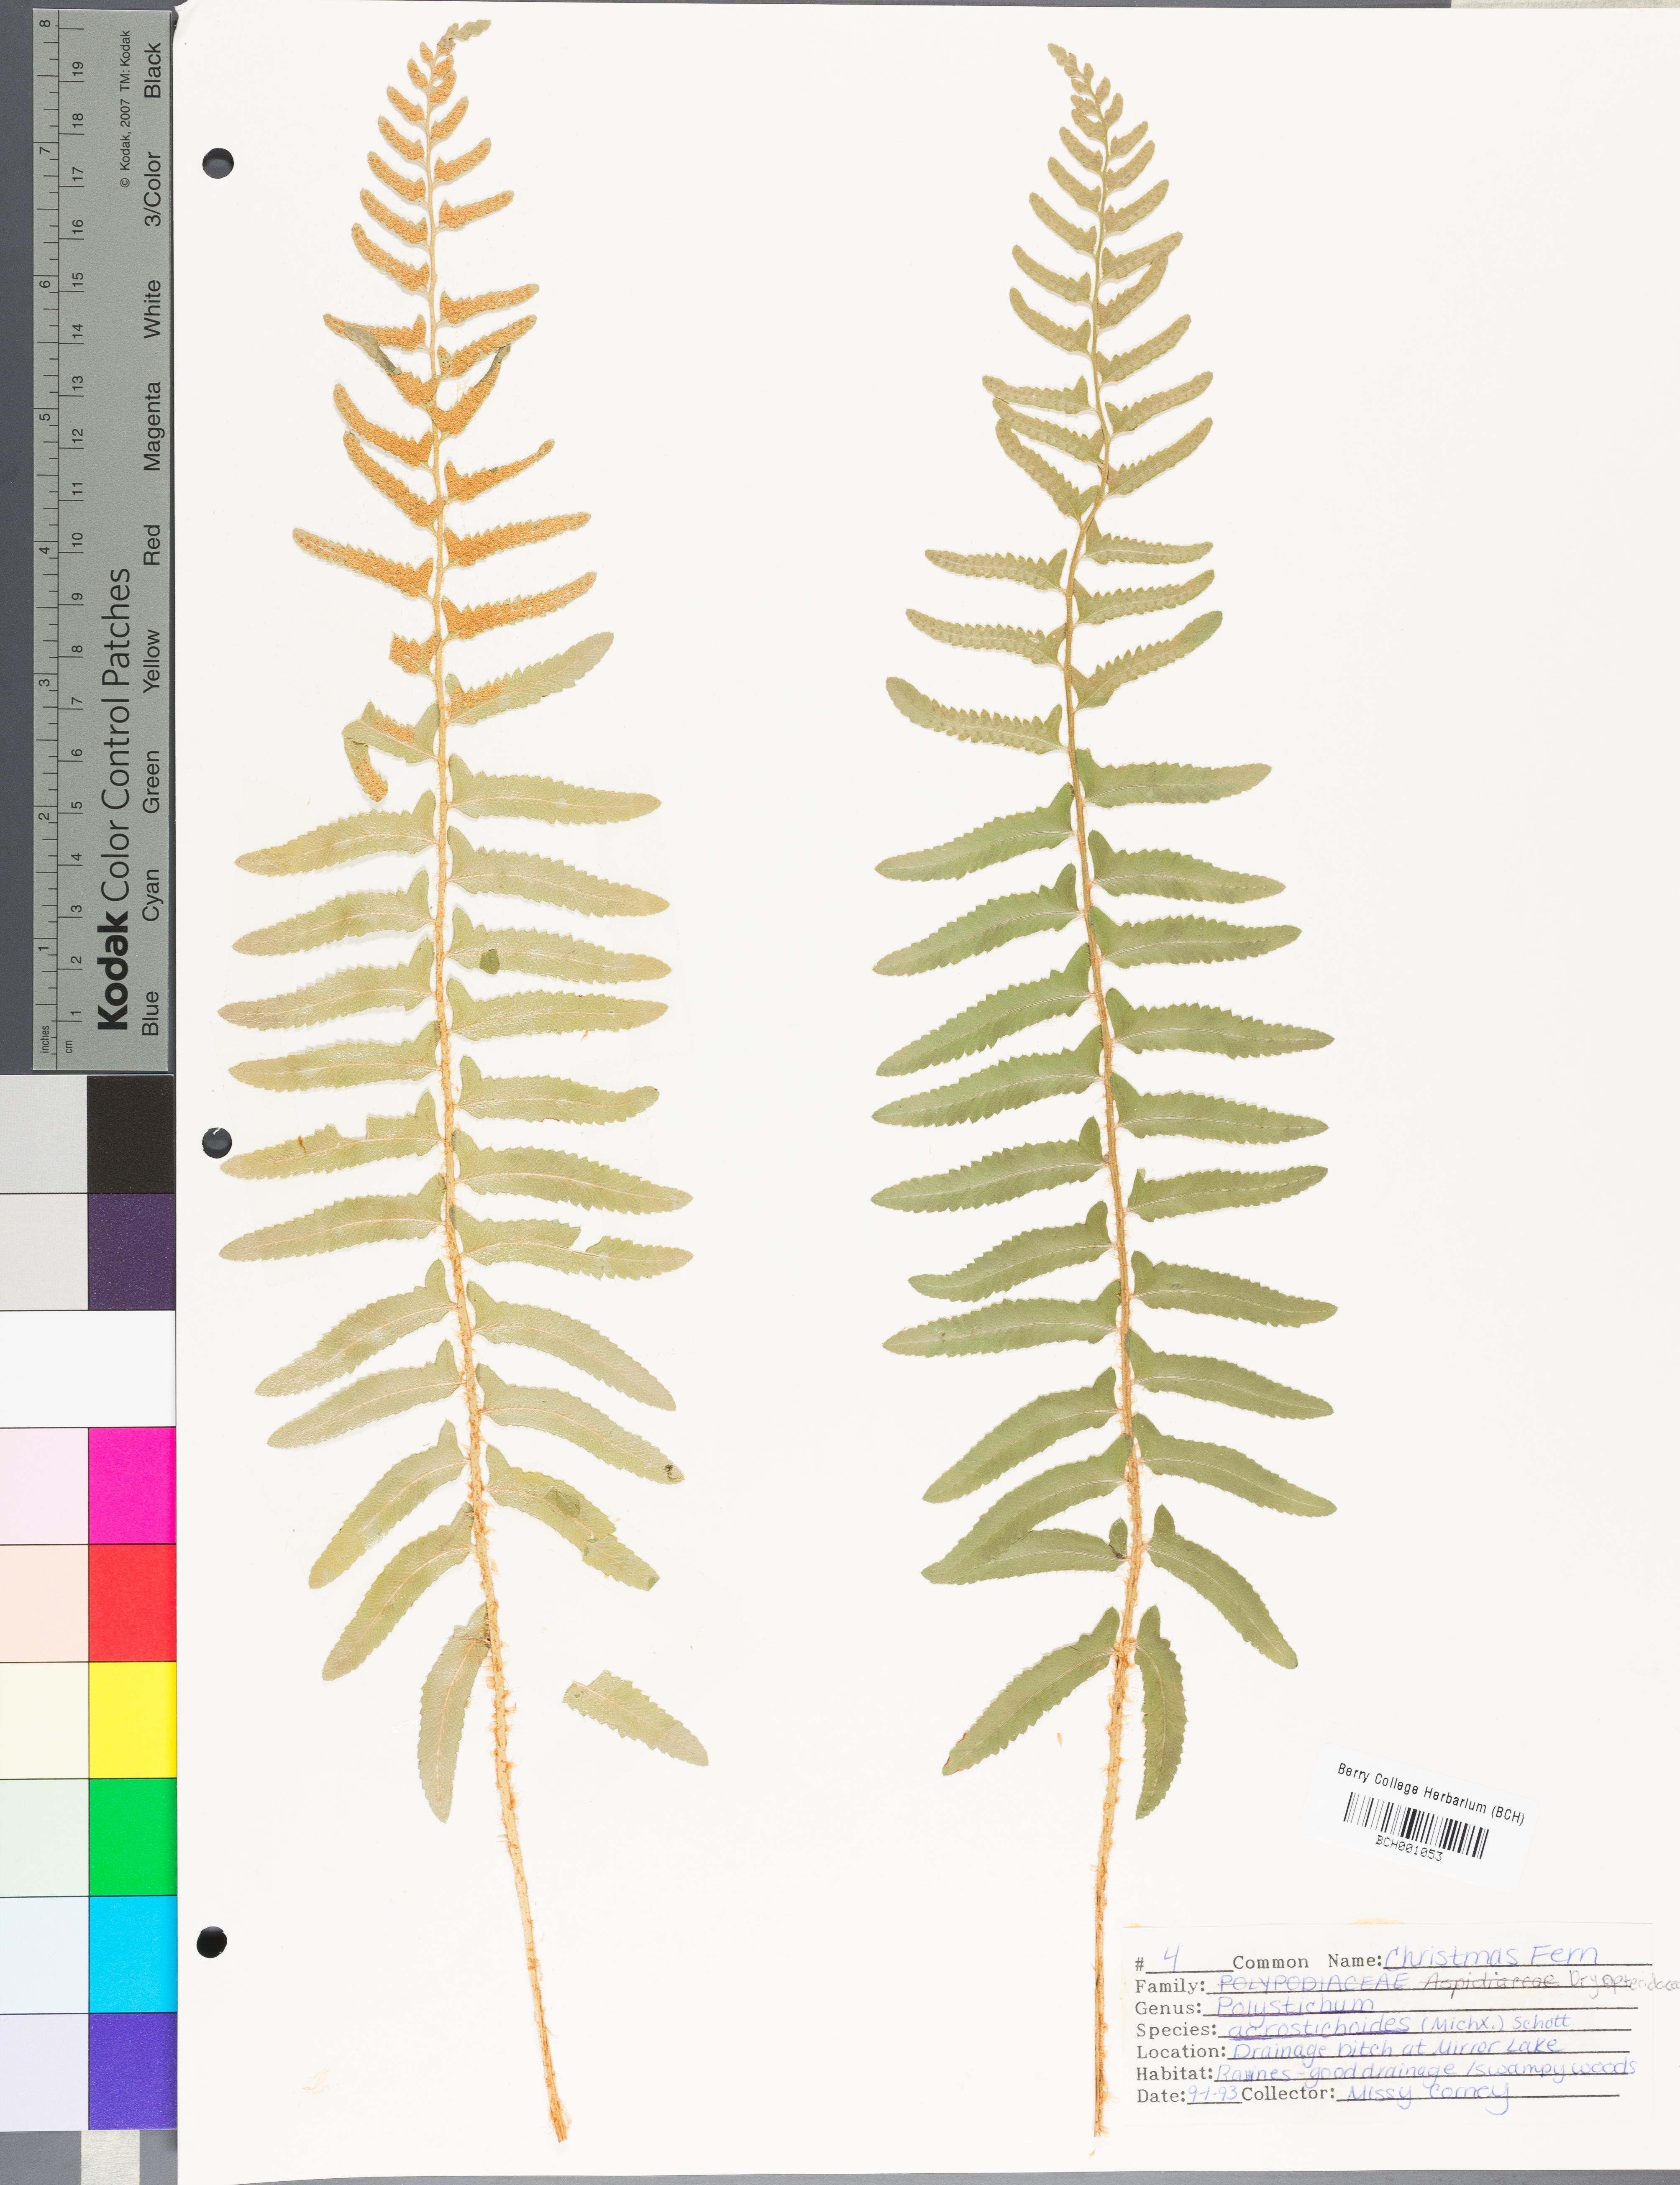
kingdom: Plantae
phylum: Tracheophyta
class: Polypodiopsida
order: Polypodiales
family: Dryopteridaceae
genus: Polystichum
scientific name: Polystichum acrostichoides
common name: Christmas fern
